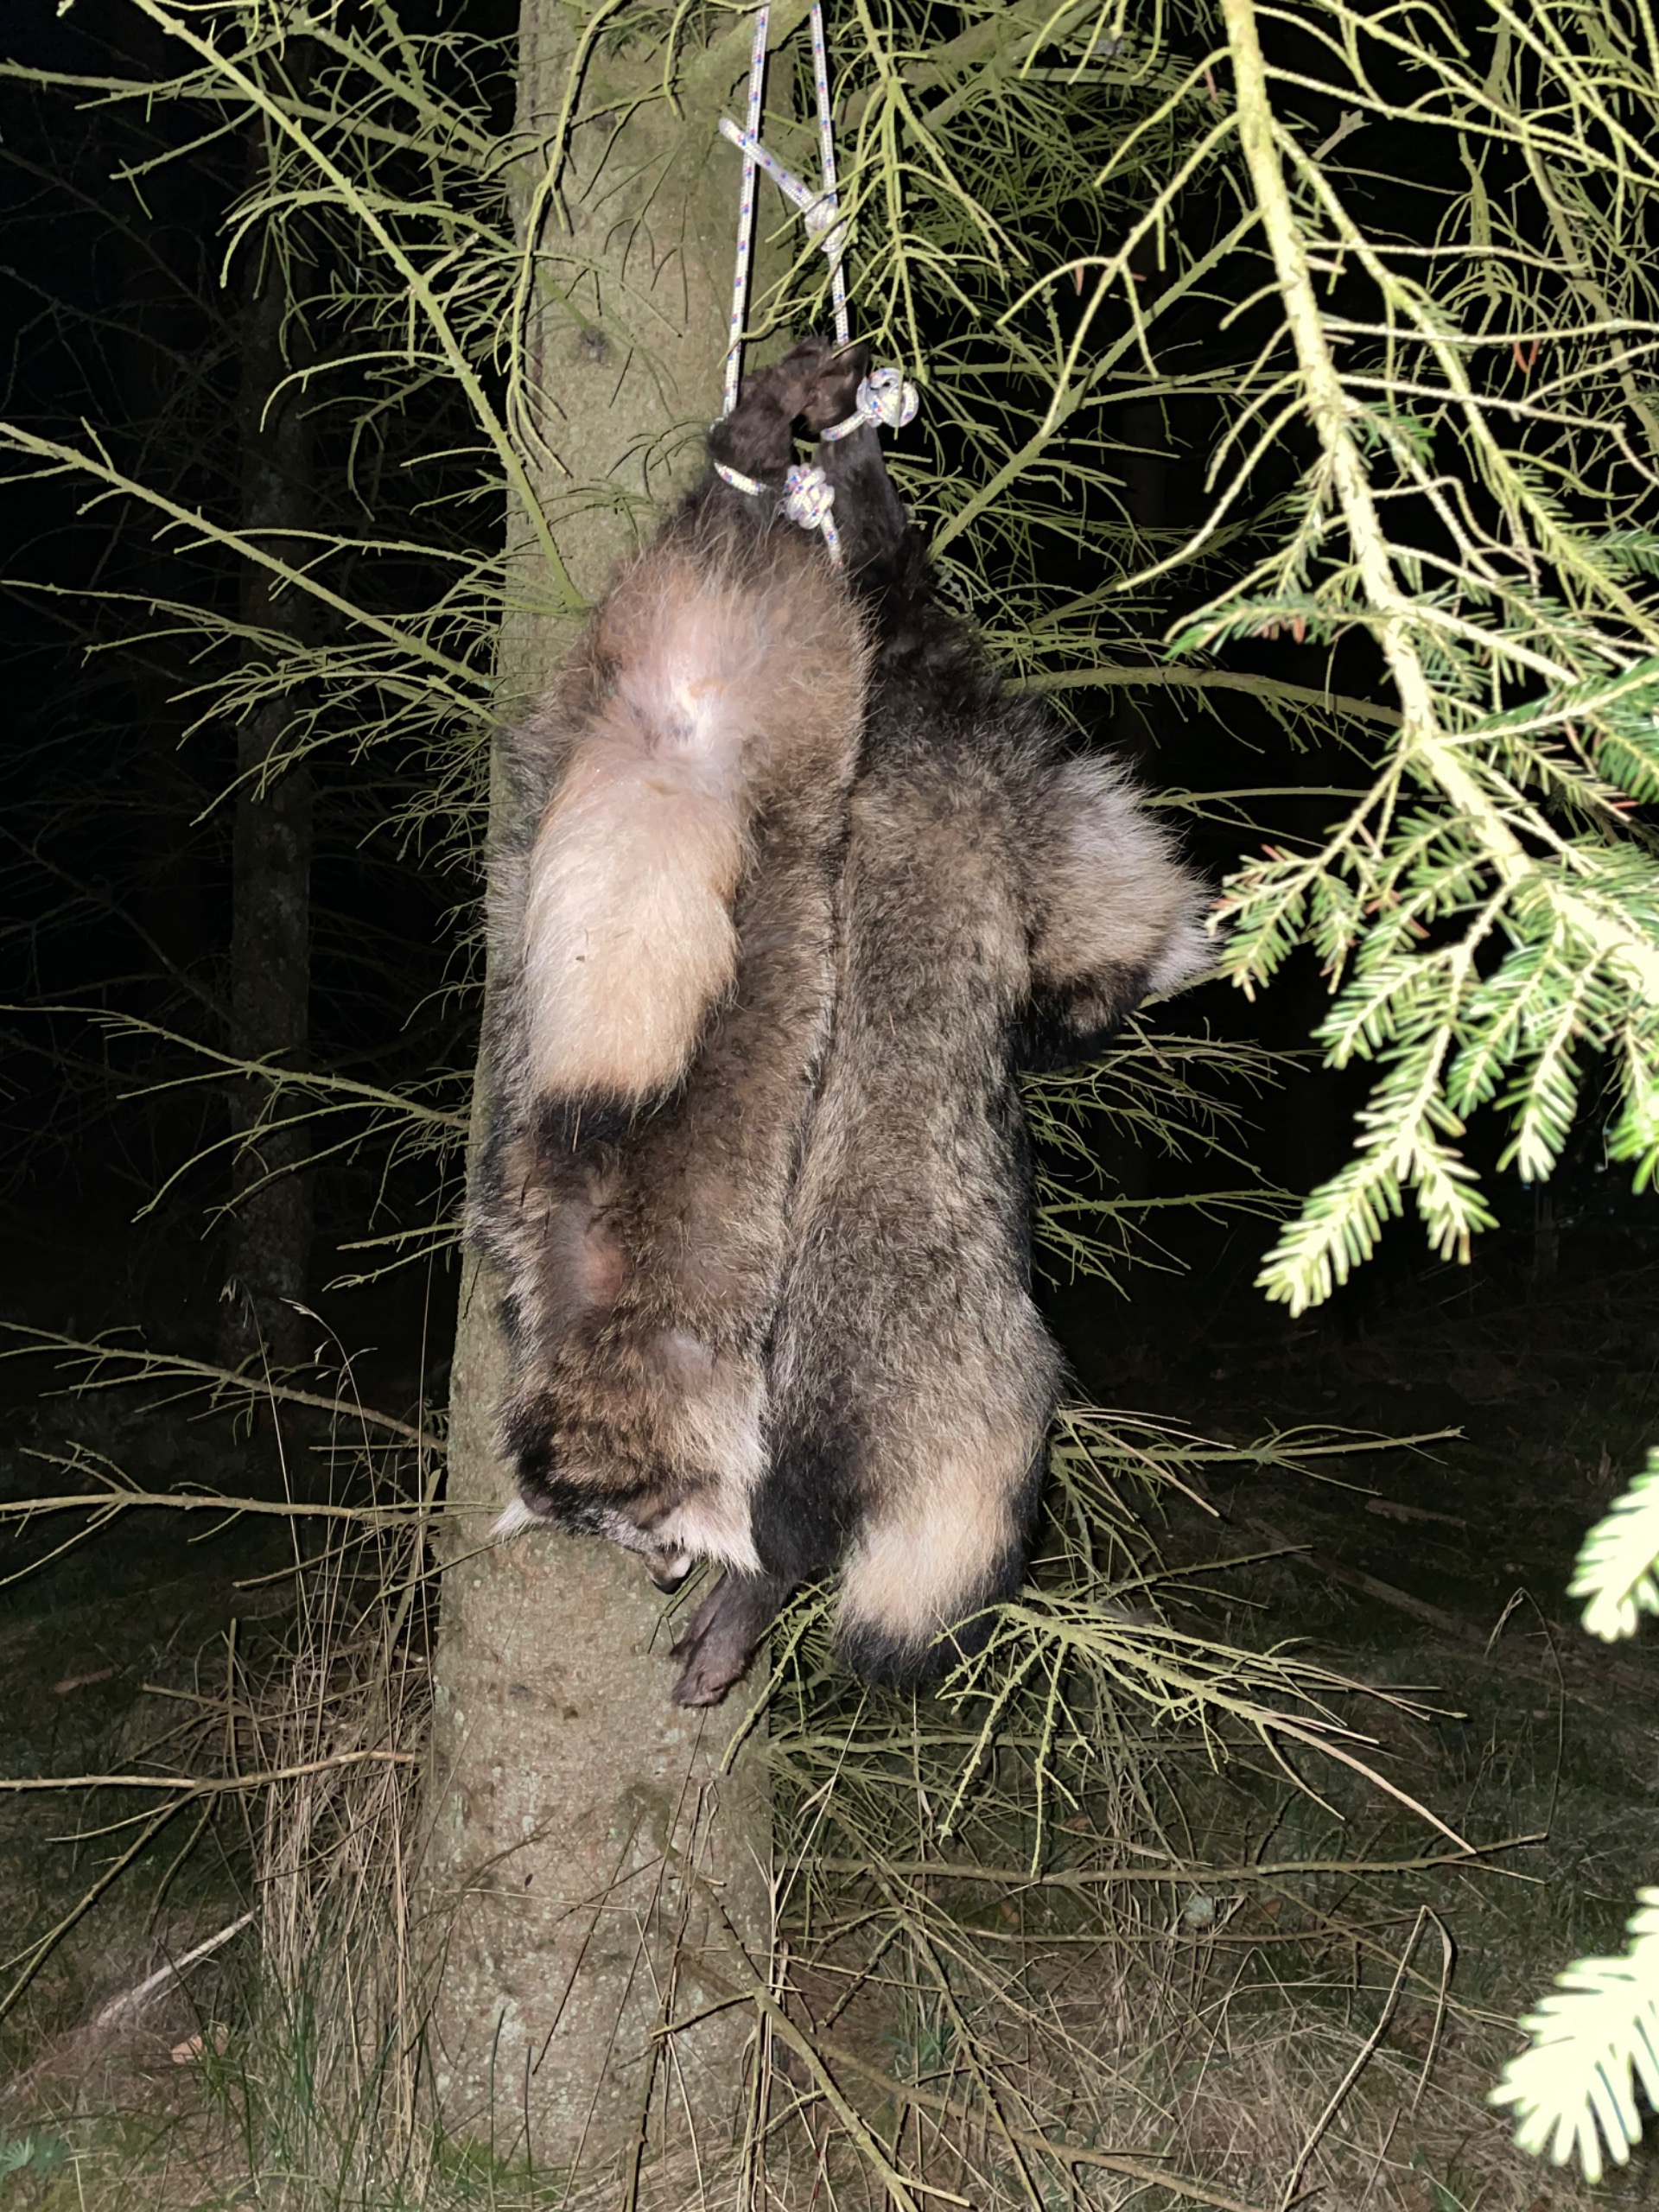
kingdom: Animalia
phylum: Chordata
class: Mammalia
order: Carnivora
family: Canidae
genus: Nyctereutes
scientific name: Nyctereutes procyonoides
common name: Mårhund
